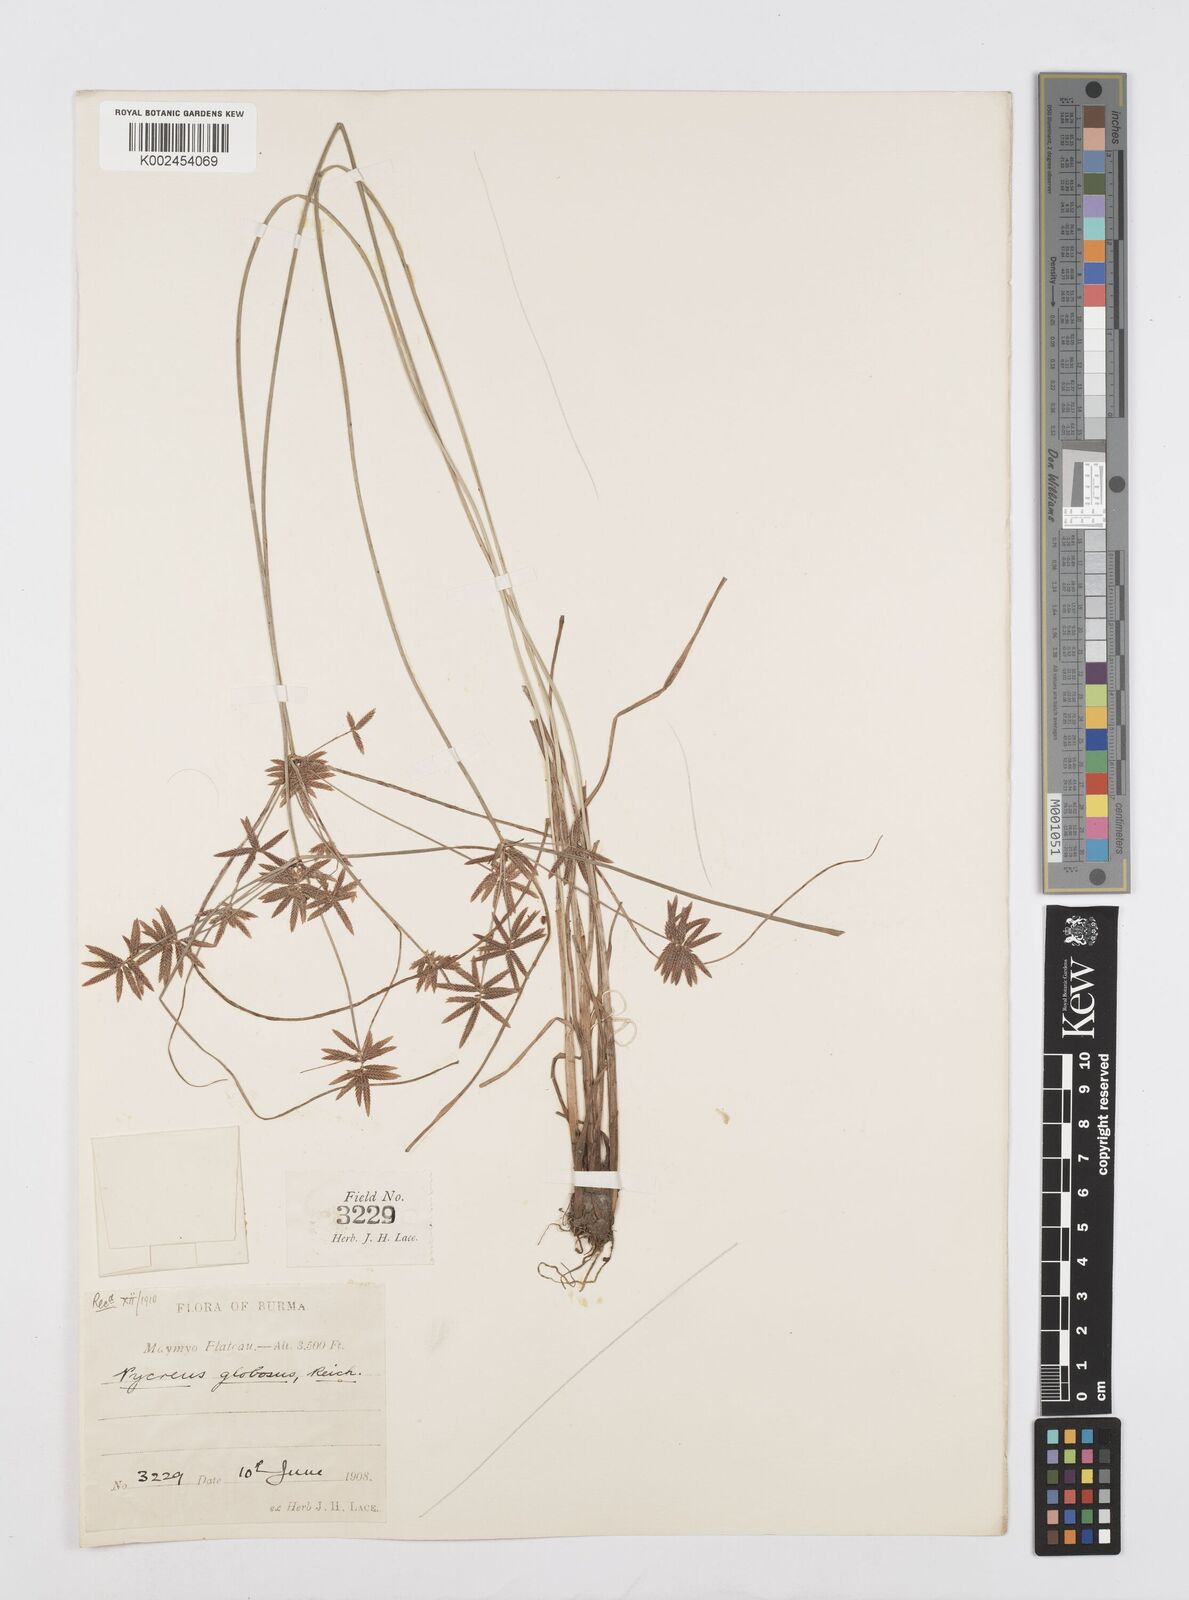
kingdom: Plantae
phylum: Tracheophyta
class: Liliopsida
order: Poales
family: Cyperaceae
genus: Cyperus
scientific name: Cyperus flavidus
